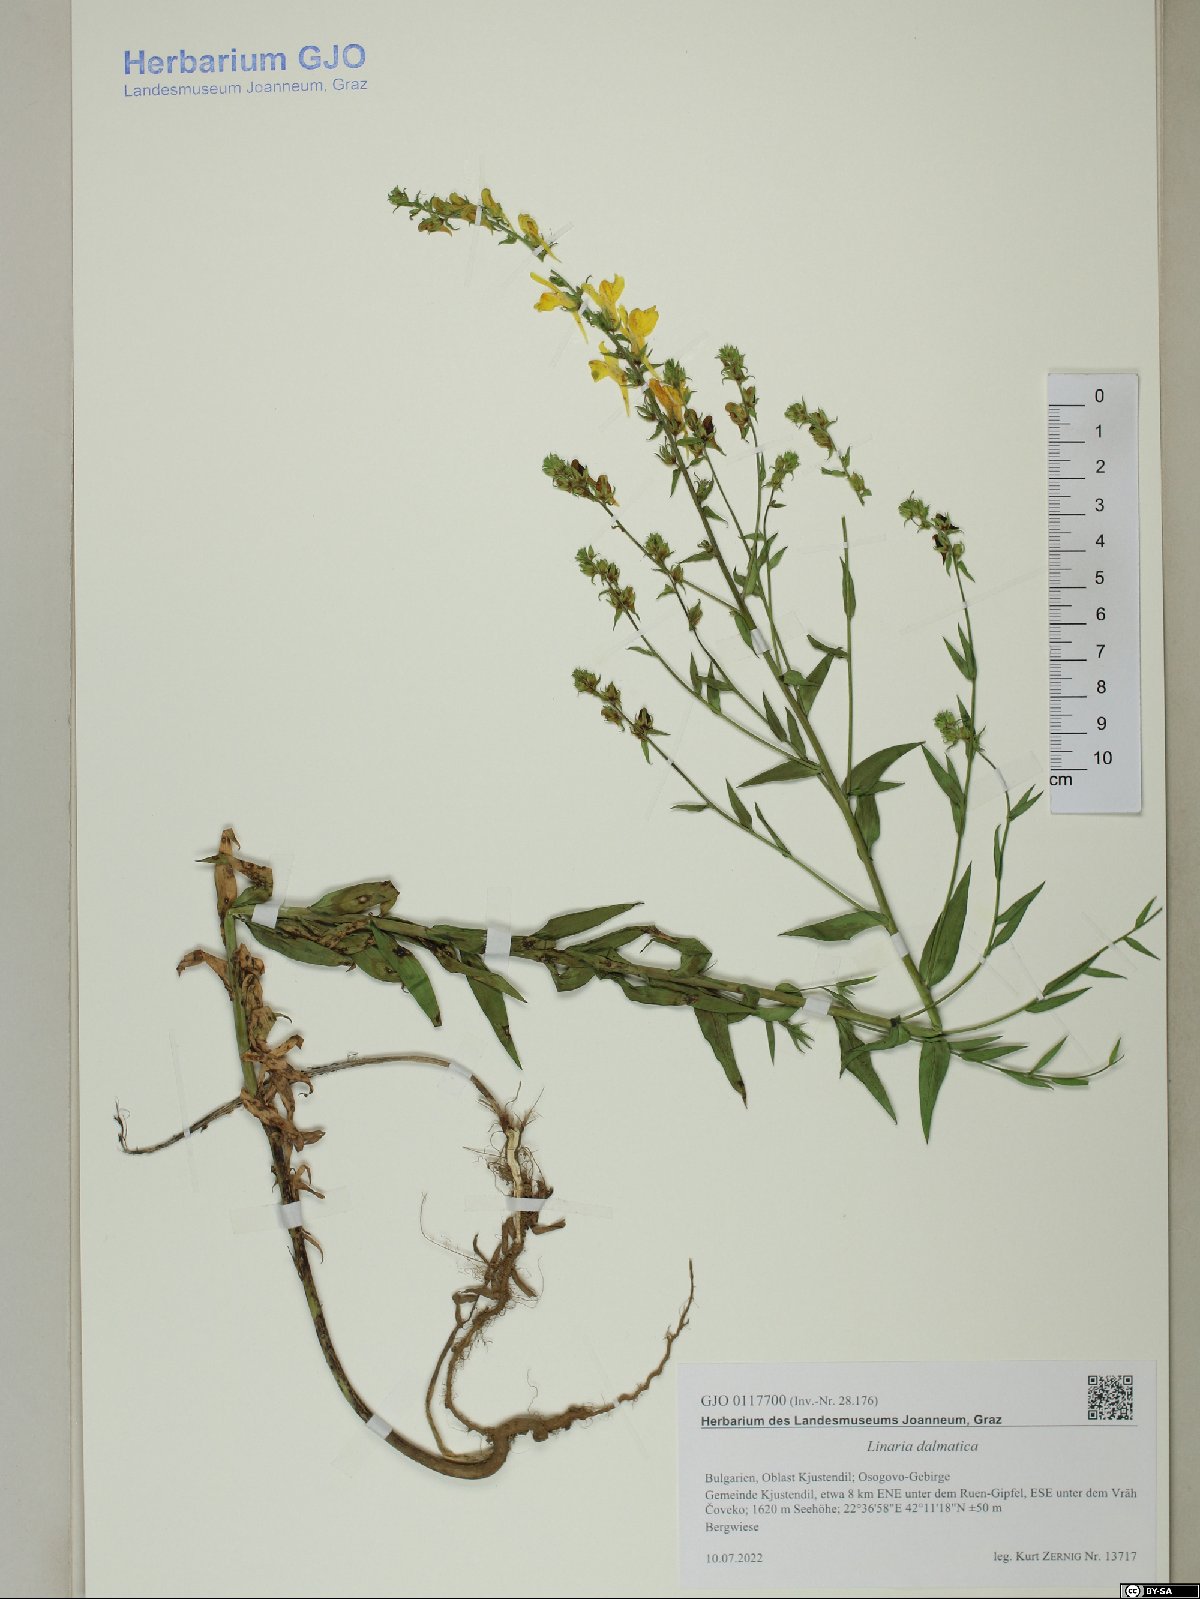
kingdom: Plantae
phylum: Tracheophyta
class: Magnoliopsida
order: Lamiales
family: Plantaginaceae
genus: Linaria
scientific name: Linaria dalmatica
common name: Dalmatian toadflax
